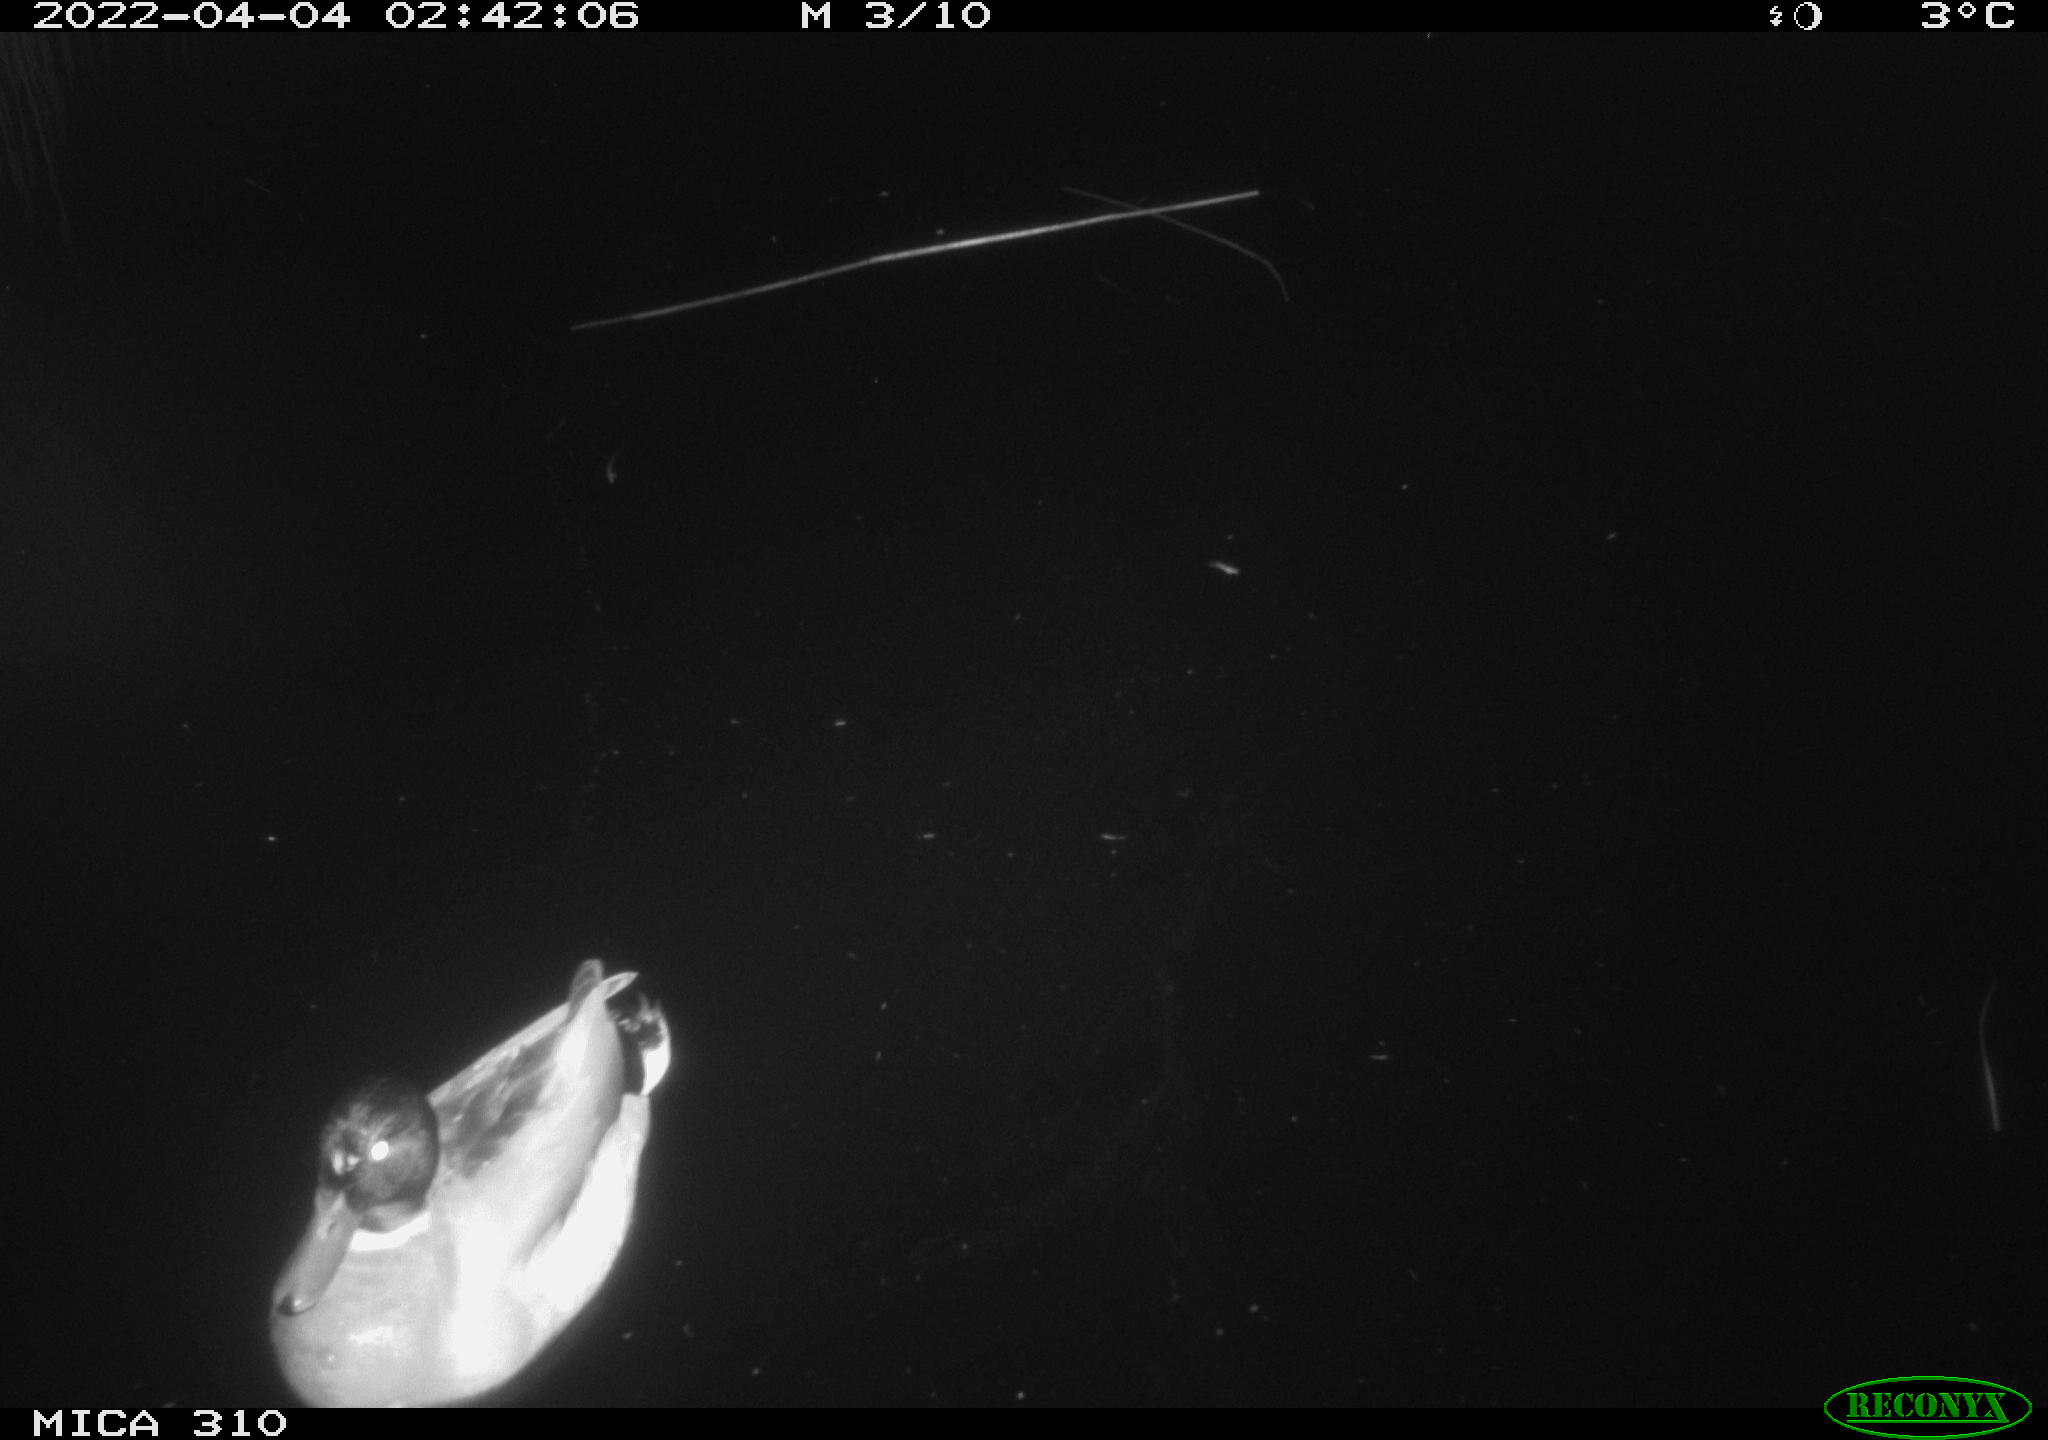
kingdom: Animalia
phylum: Chordata
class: Aves
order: Anseriformes
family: Anatidae
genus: Anas
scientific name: Anas platyrhynchos
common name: Mallard
